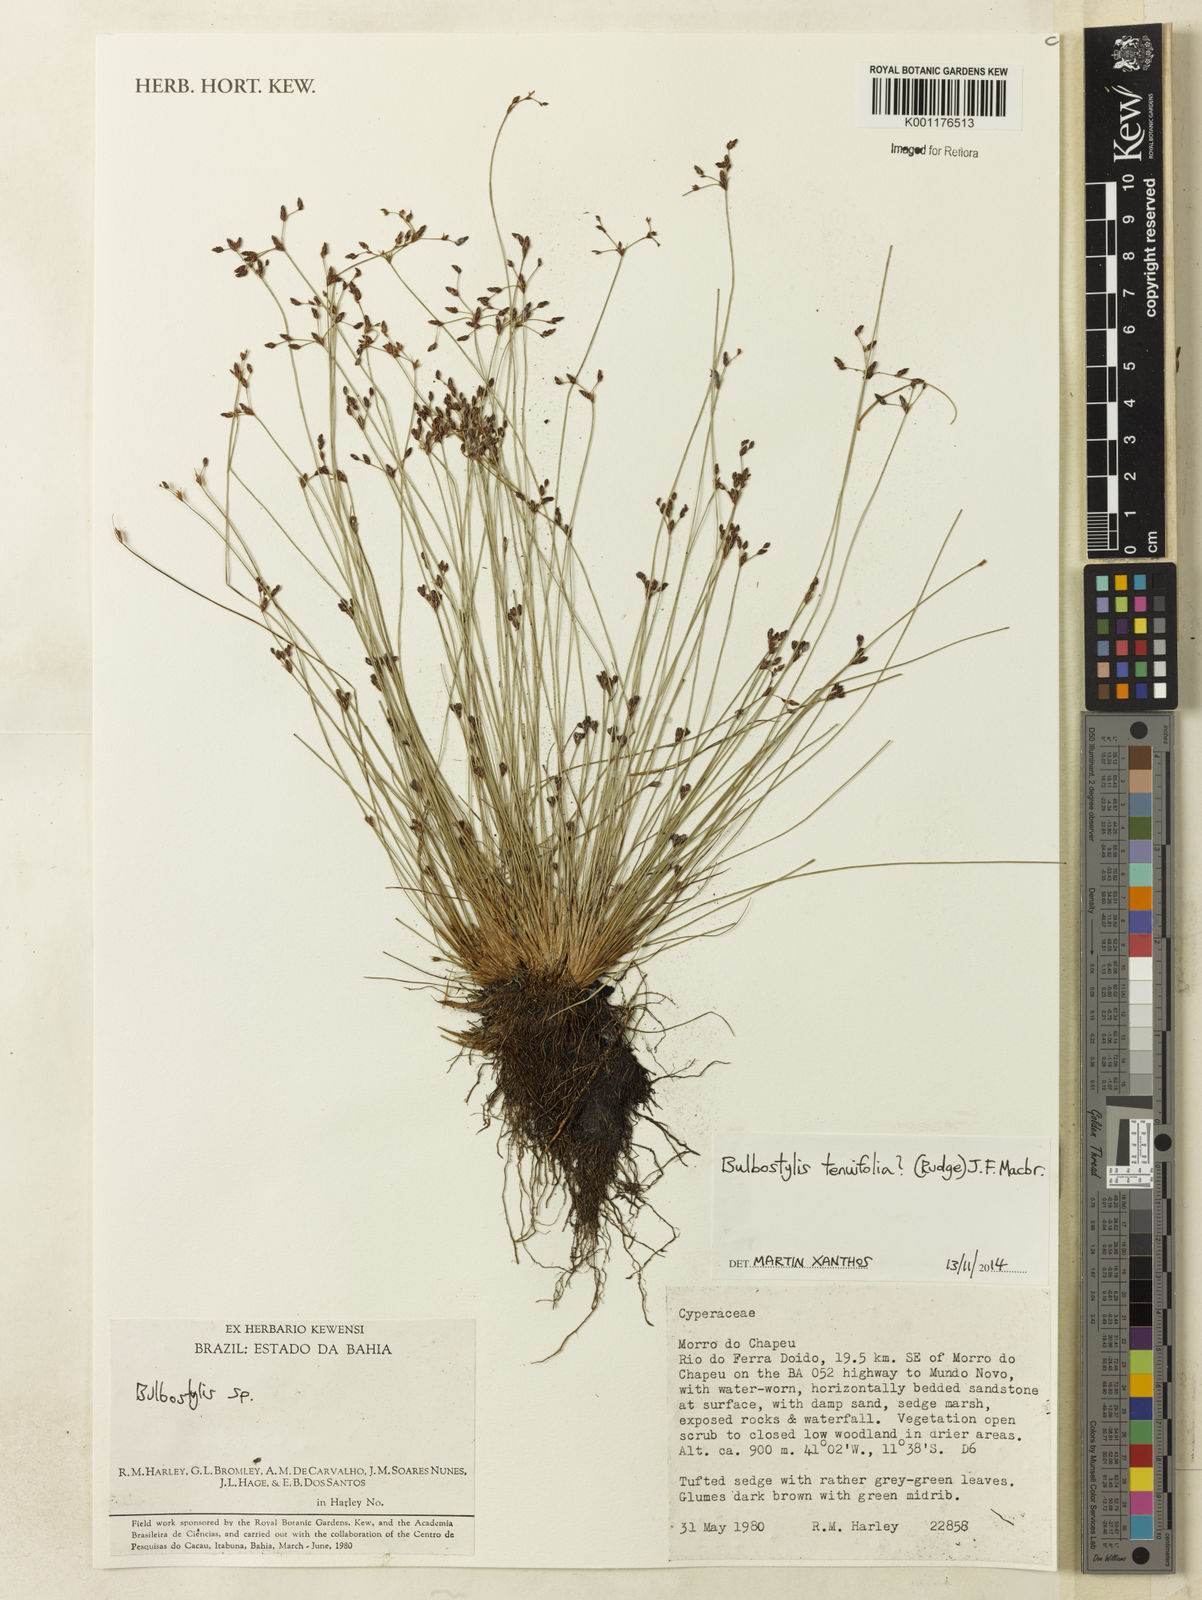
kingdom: Plantae
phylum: Tracheophyta
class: Liliopsida
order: Poales
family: Cyperaceae
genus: Bulbostylis
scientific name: Bulbostylis tenuifolia
